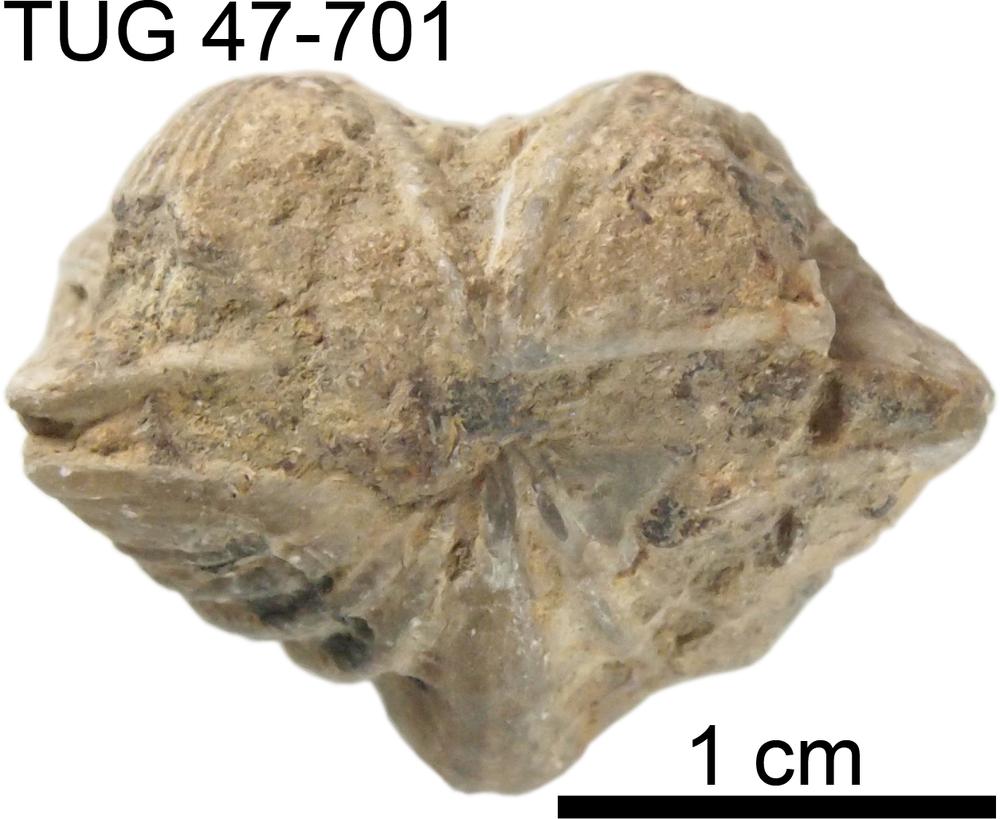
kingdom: Animalia
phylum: Brachiopoda
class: Rhynchonellata
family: Plectorthidae
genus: Platystrophia
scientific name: Platystrophia crassoplicata
